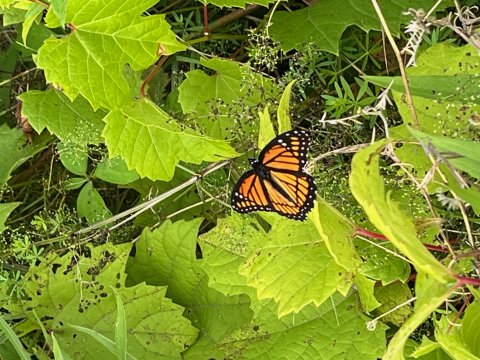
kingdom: Animalia
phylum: Arthropoda
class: Insecta
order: Lepidoptera
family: Nymphalidae
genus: Limenitis
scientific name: Limenitis archippus
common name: Viceroy
